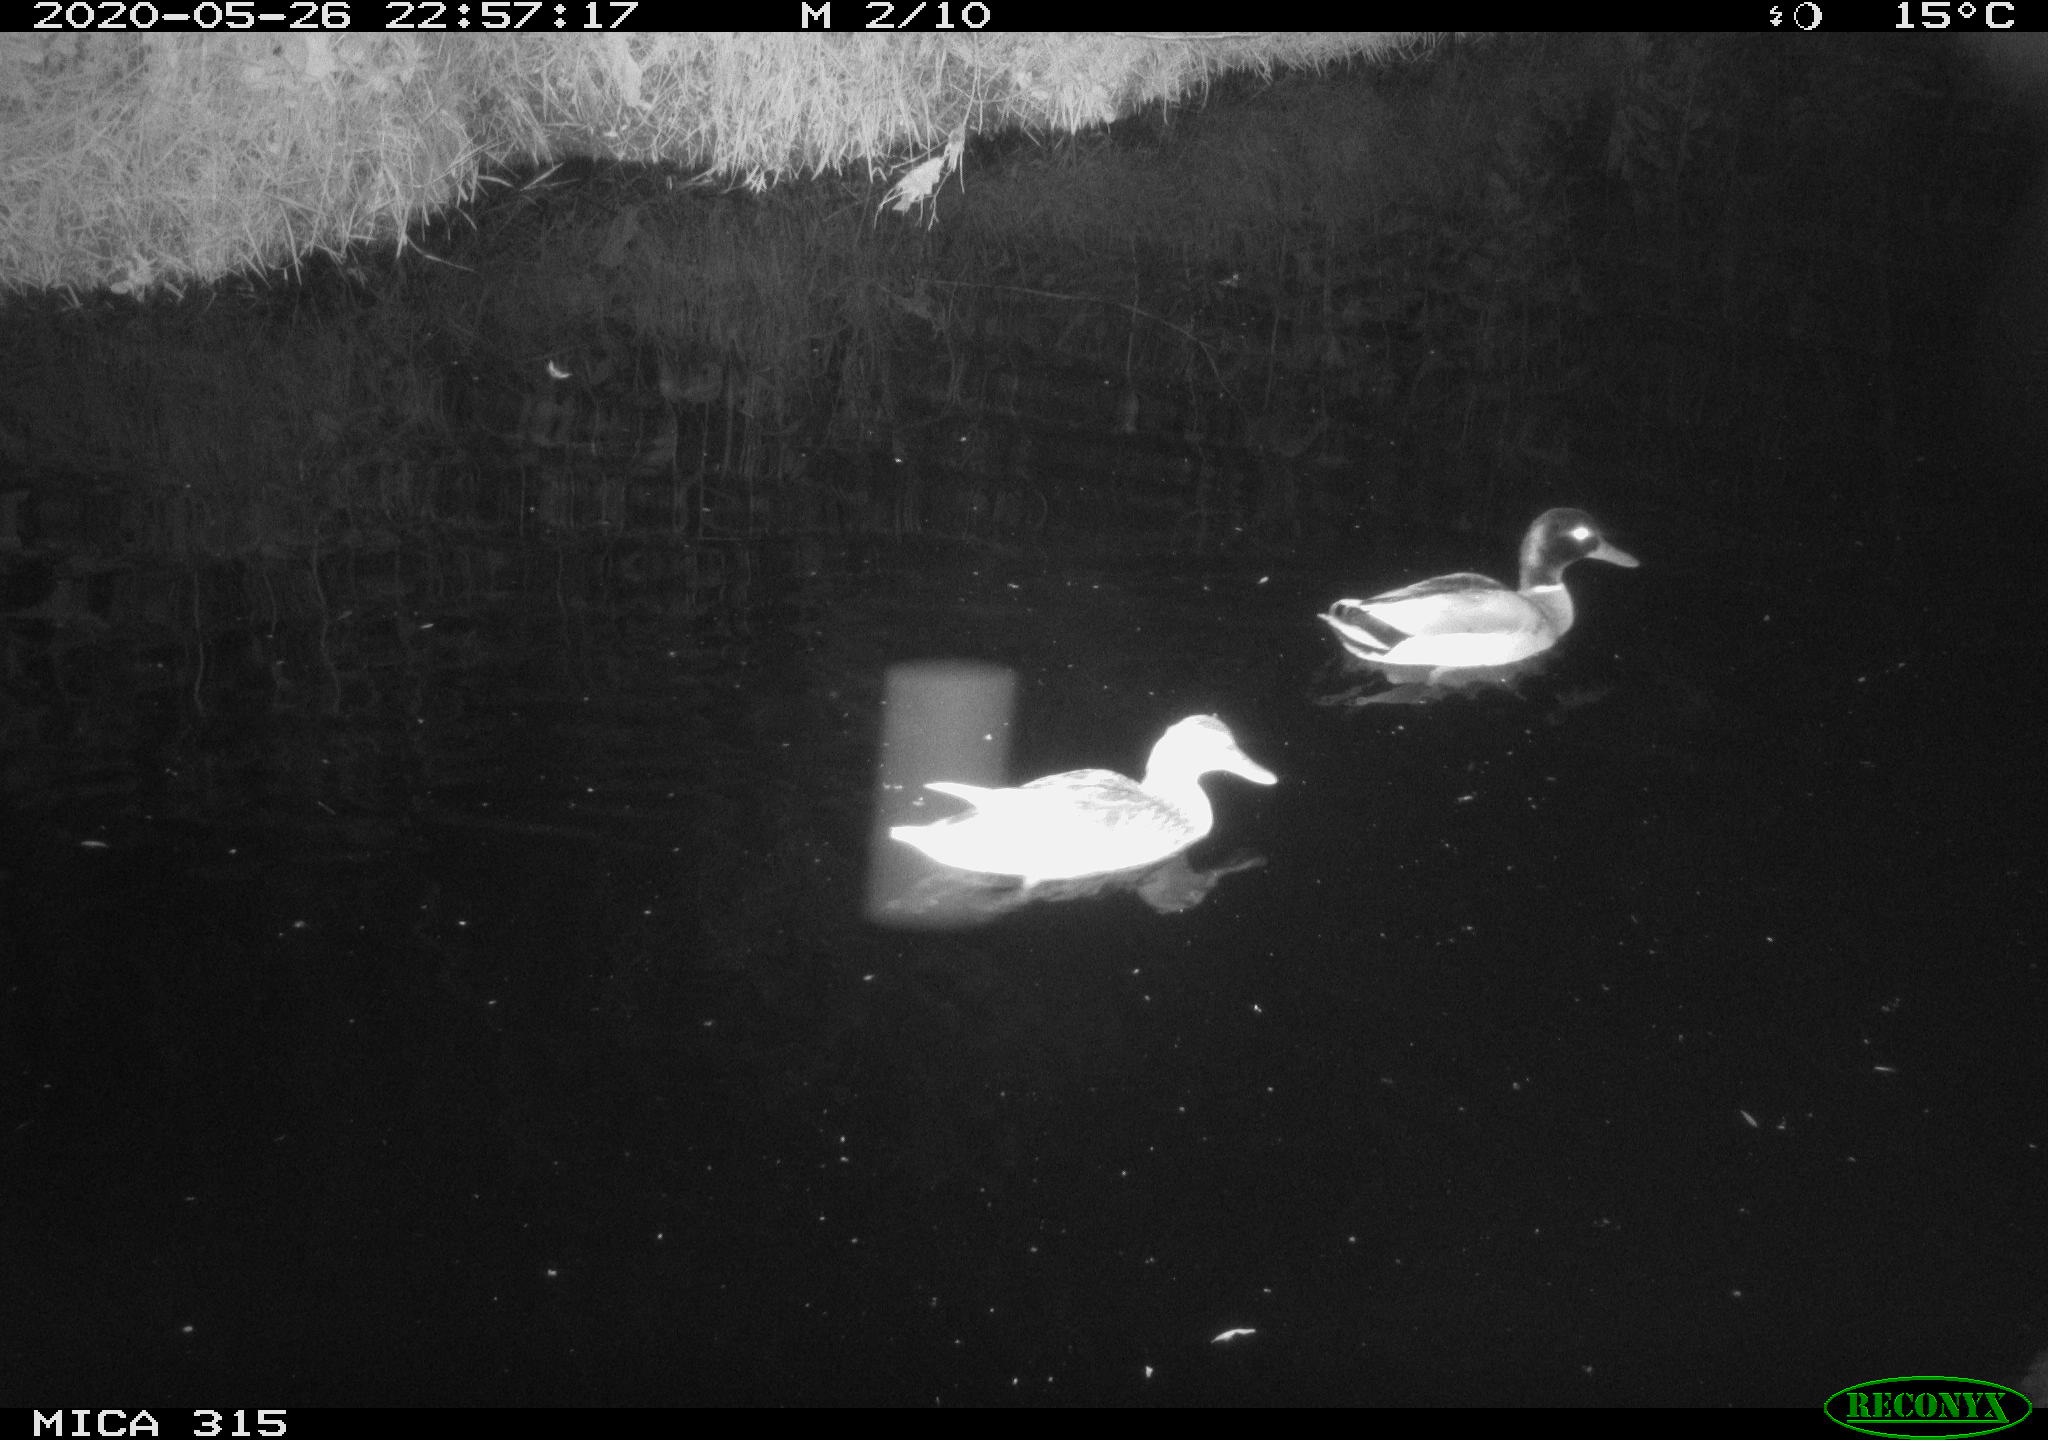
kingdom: Animalia
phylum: Chordata
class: Aves
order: Anseriformes
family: Anatidae
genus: Anas
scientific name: Anas platyrhynchos
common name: Mallard
